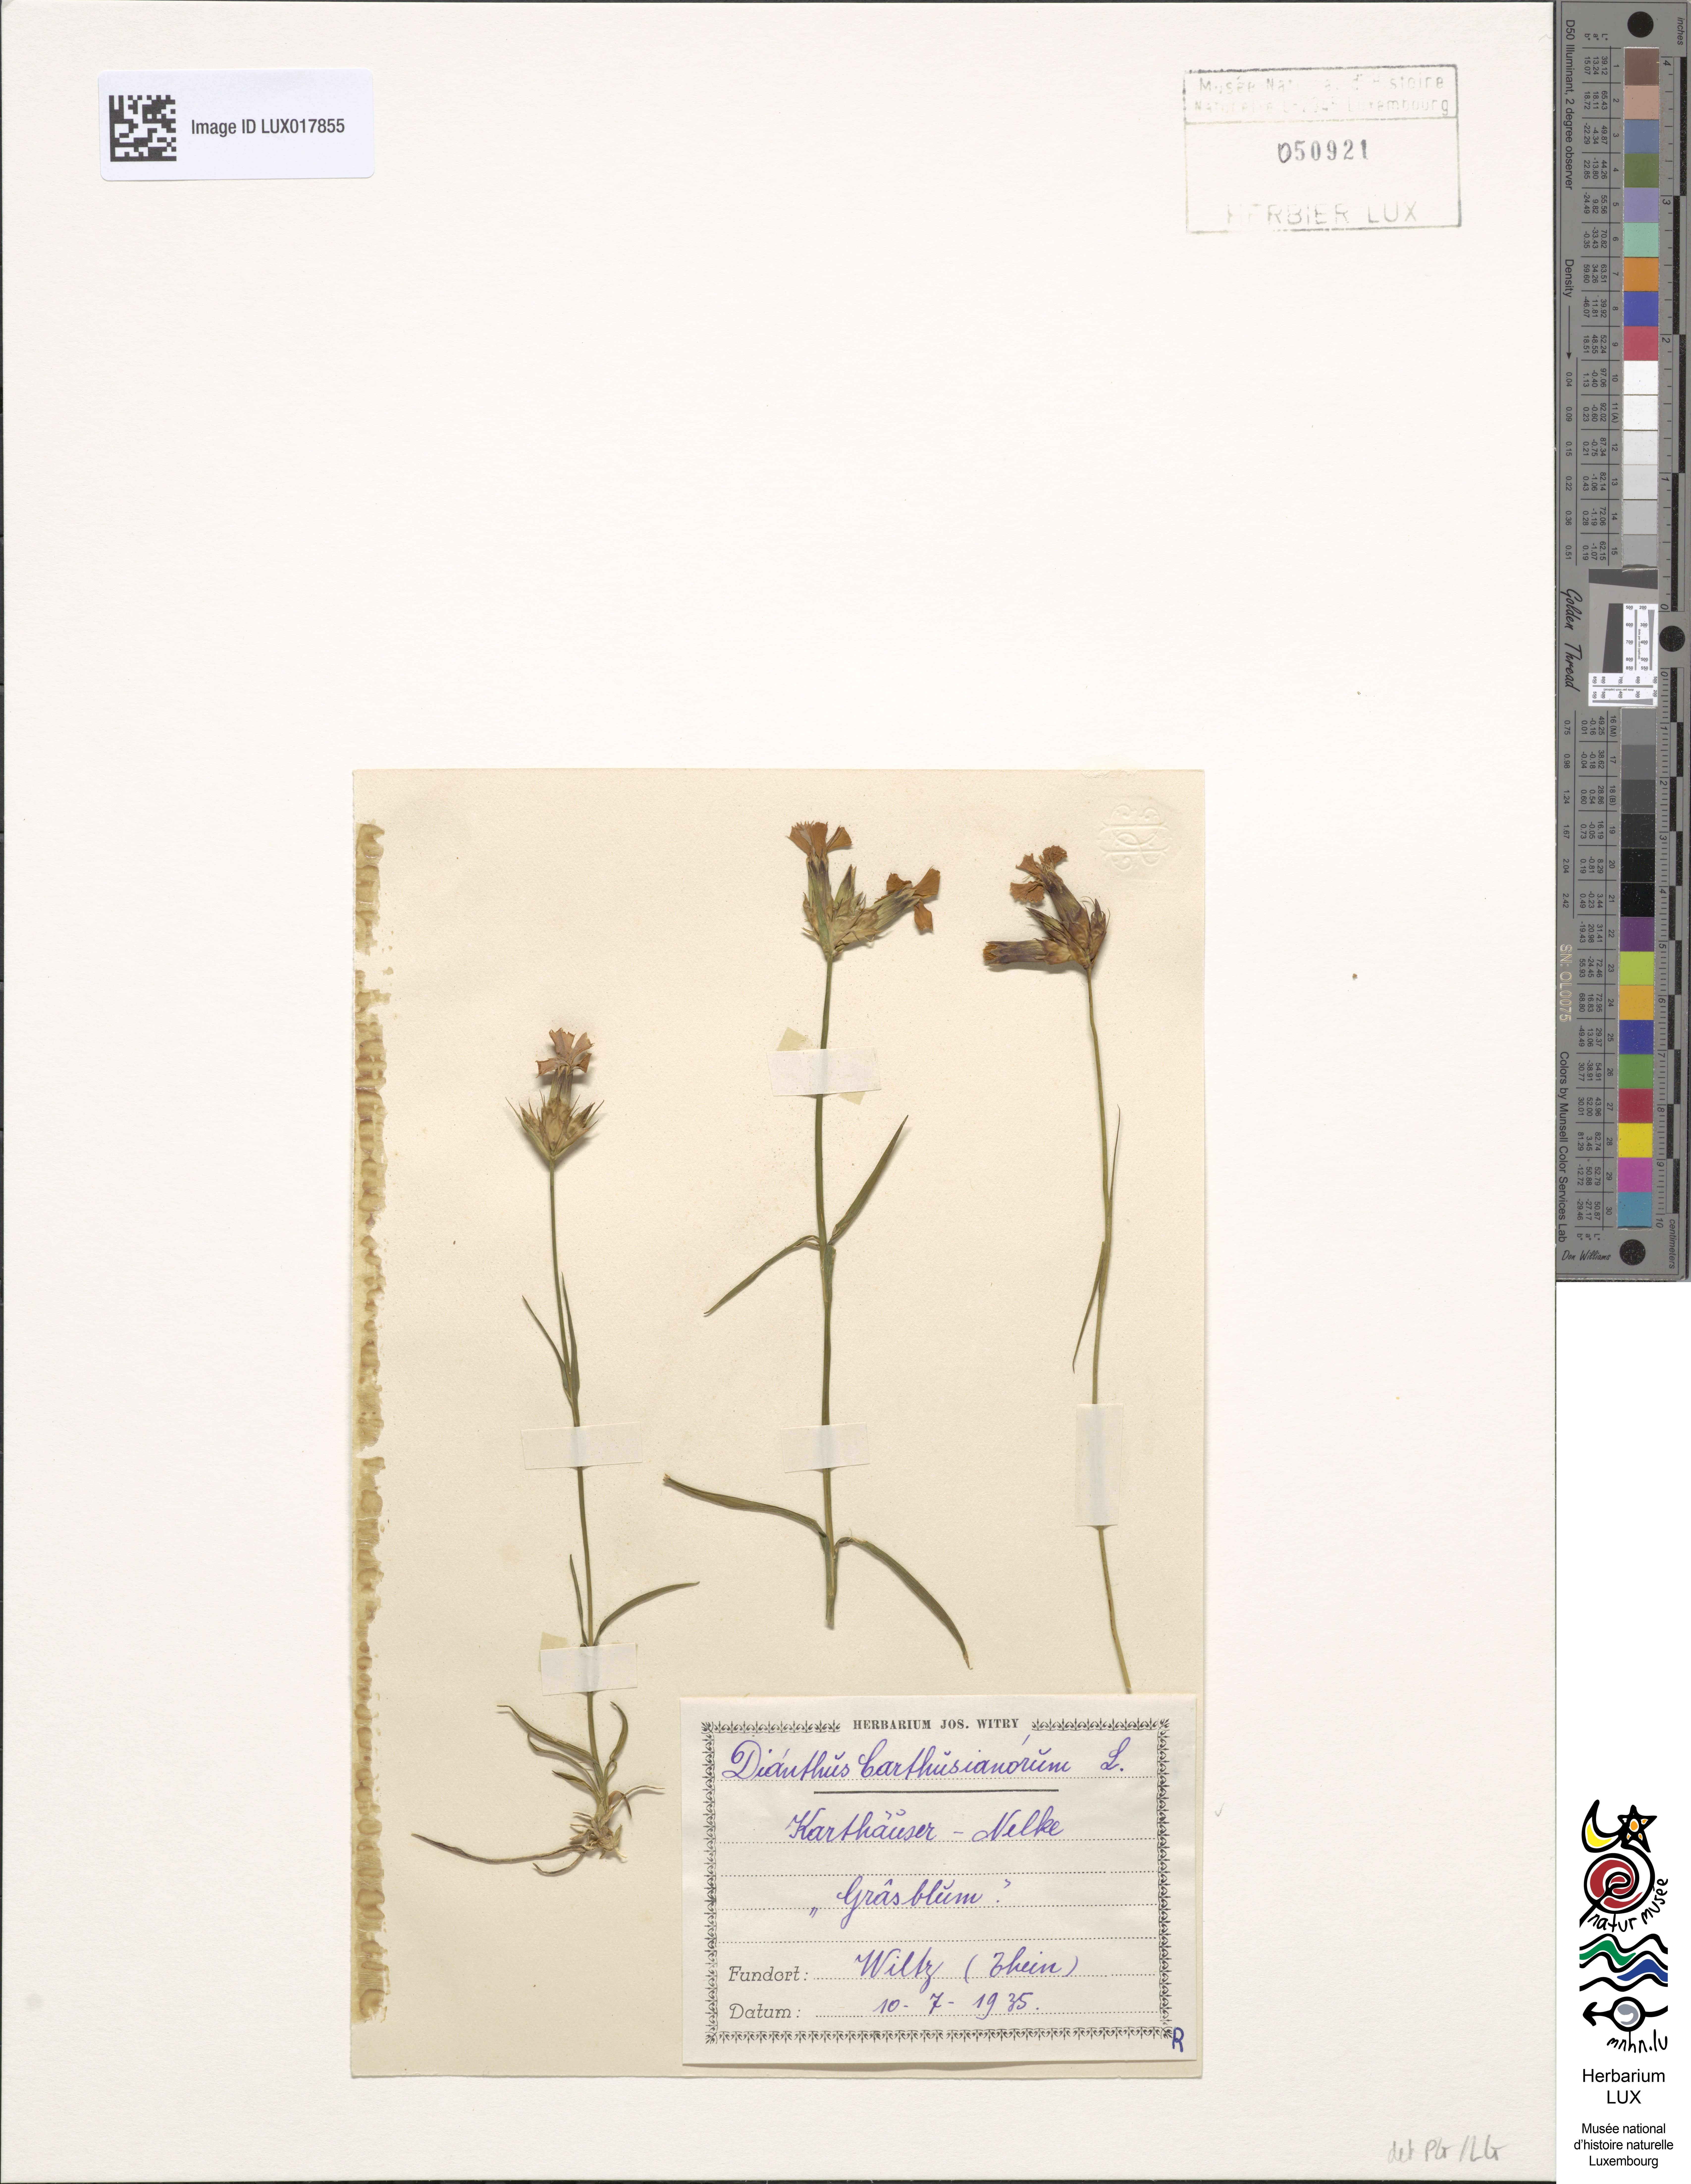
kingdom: Plantae
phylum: Tracheophyta
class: Magnoliopsida
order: Caryophyllales
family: Caryophyllaceae
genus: Dianthus
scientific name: Dianthus carthusianorum
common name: Carthusian pink
